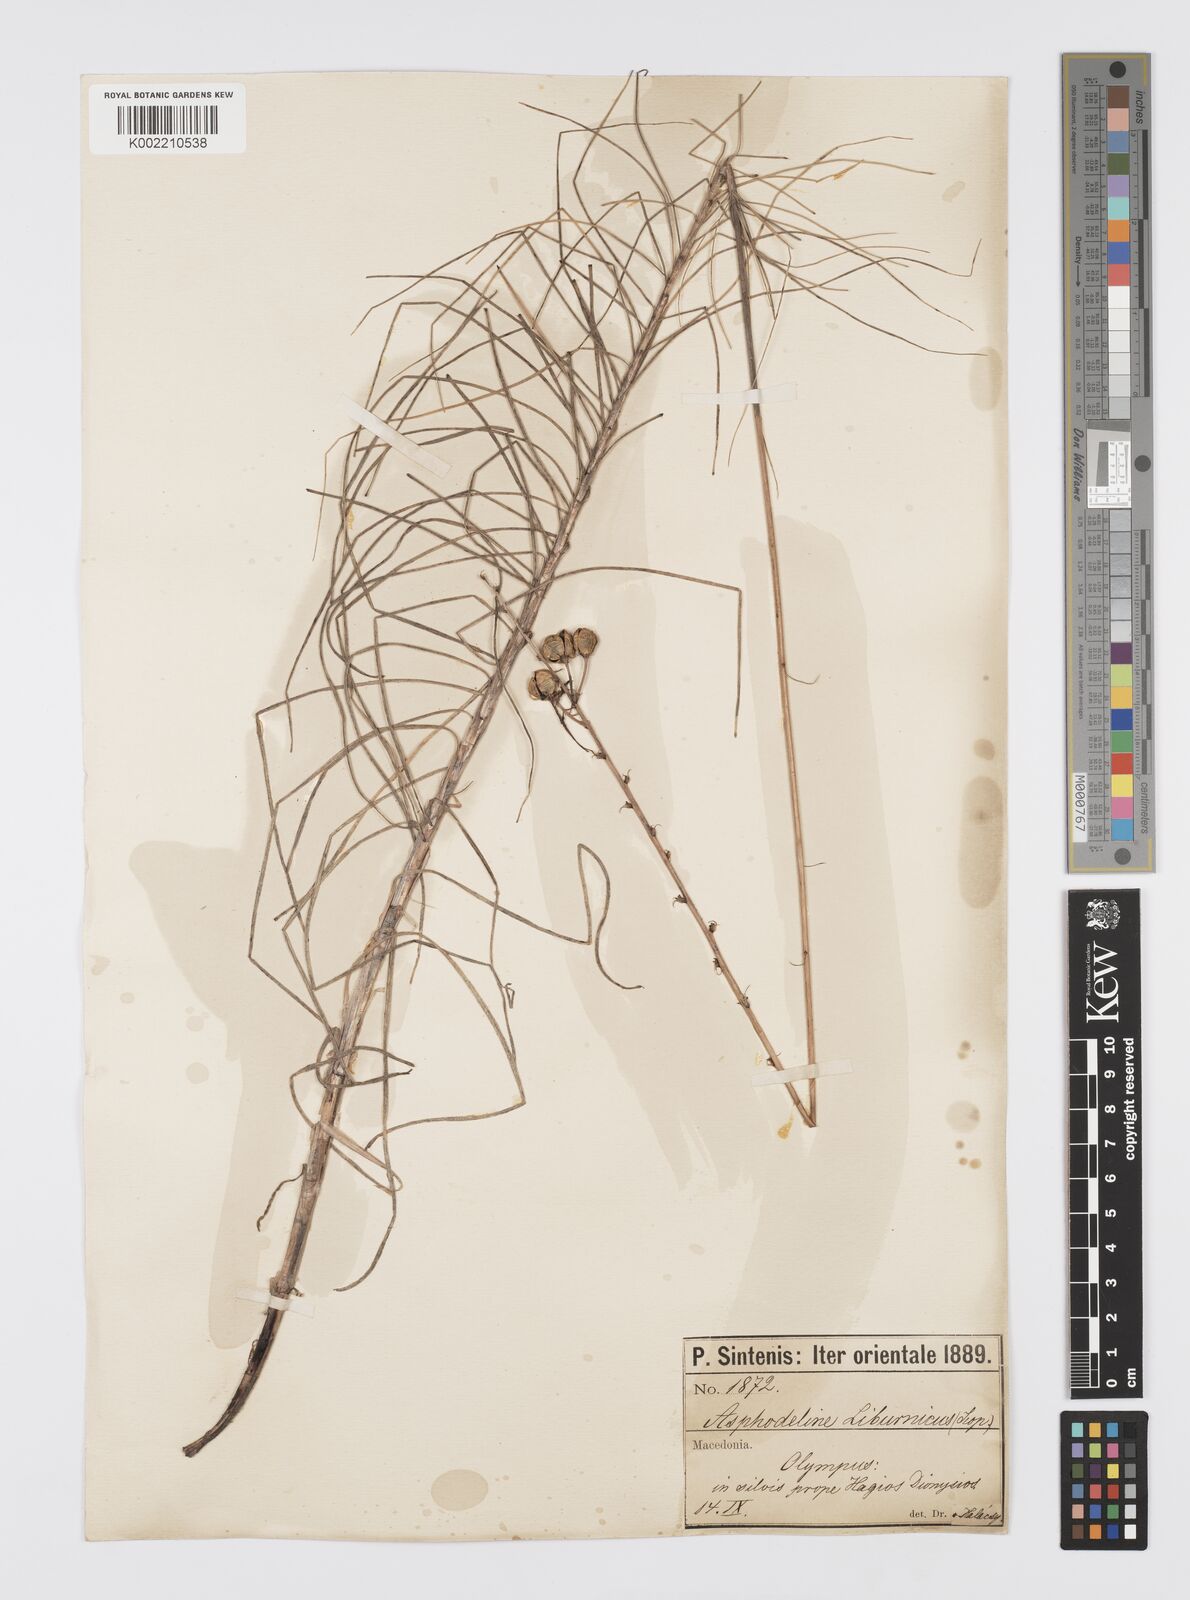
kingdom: Plantae
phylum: Tracheophyta
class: Liliopsida
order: Asparagales
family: Asphodelaceae
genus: Asphodeline
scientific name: Asphodeline liburnica
